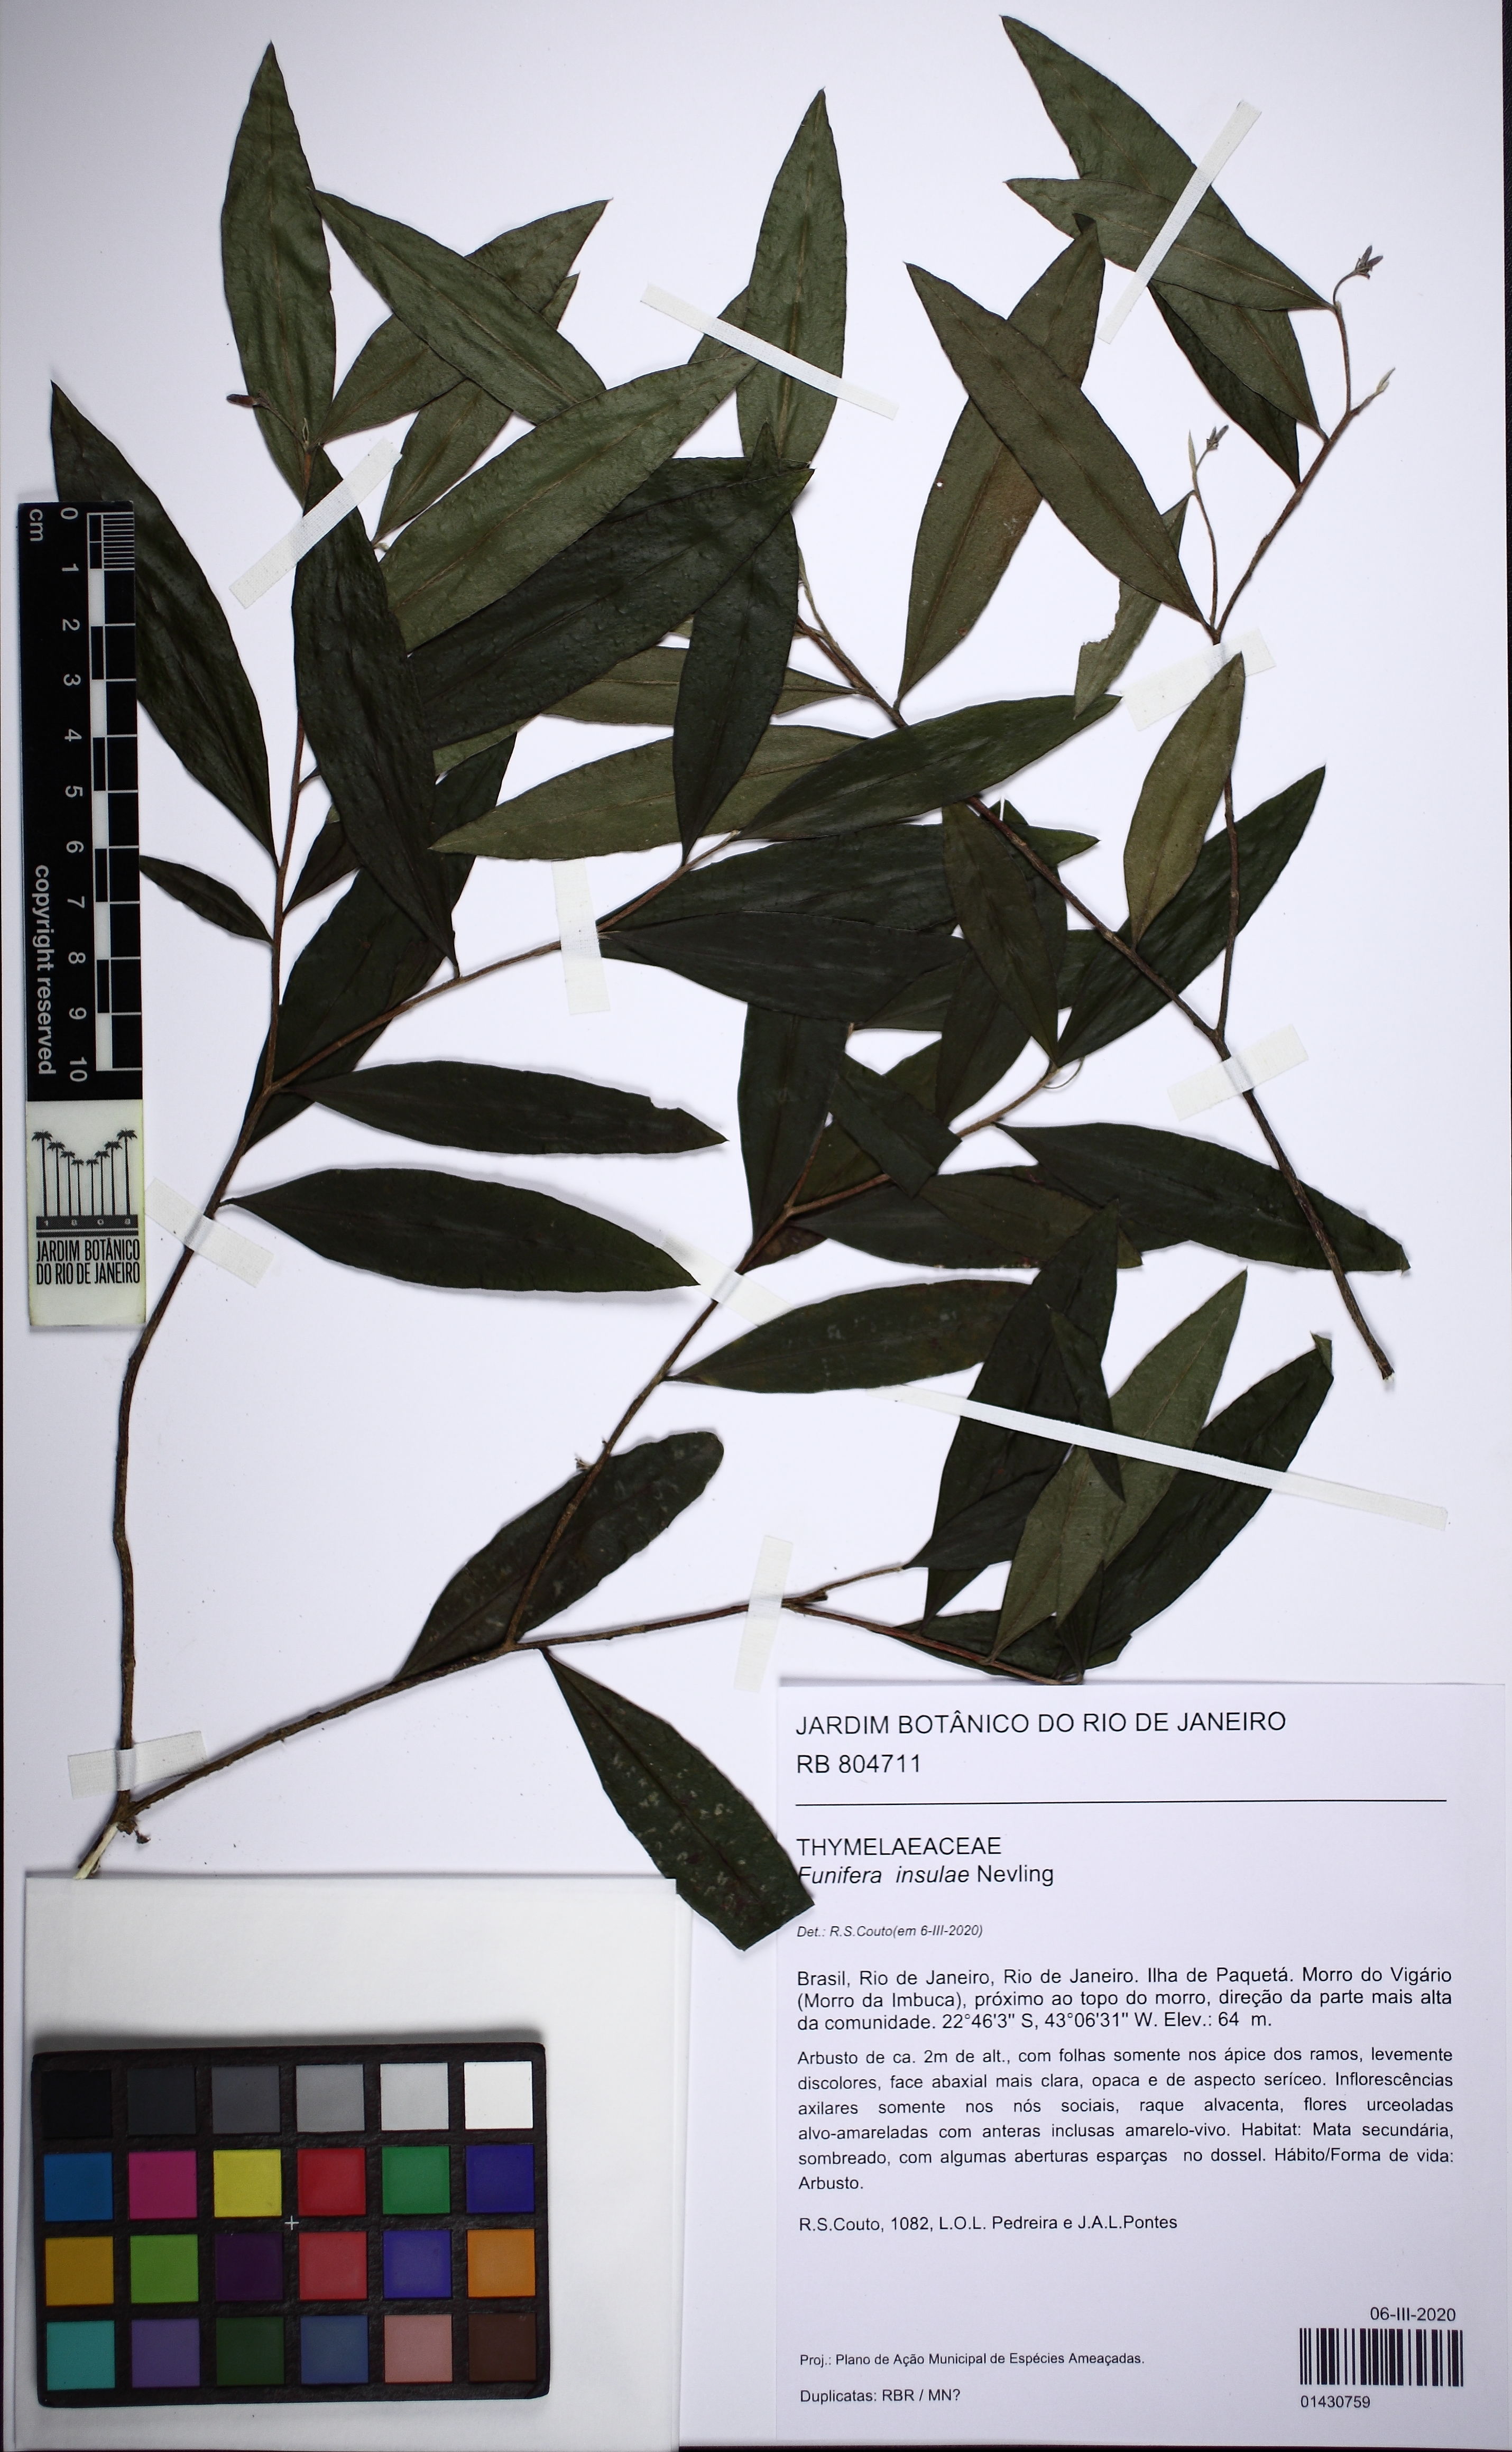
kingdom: Plantae
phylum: Tracheophyta
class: Magnoliopsida
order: Malvales
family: Thymelaeaceae
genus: Funifera
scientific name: Funifera insulae
